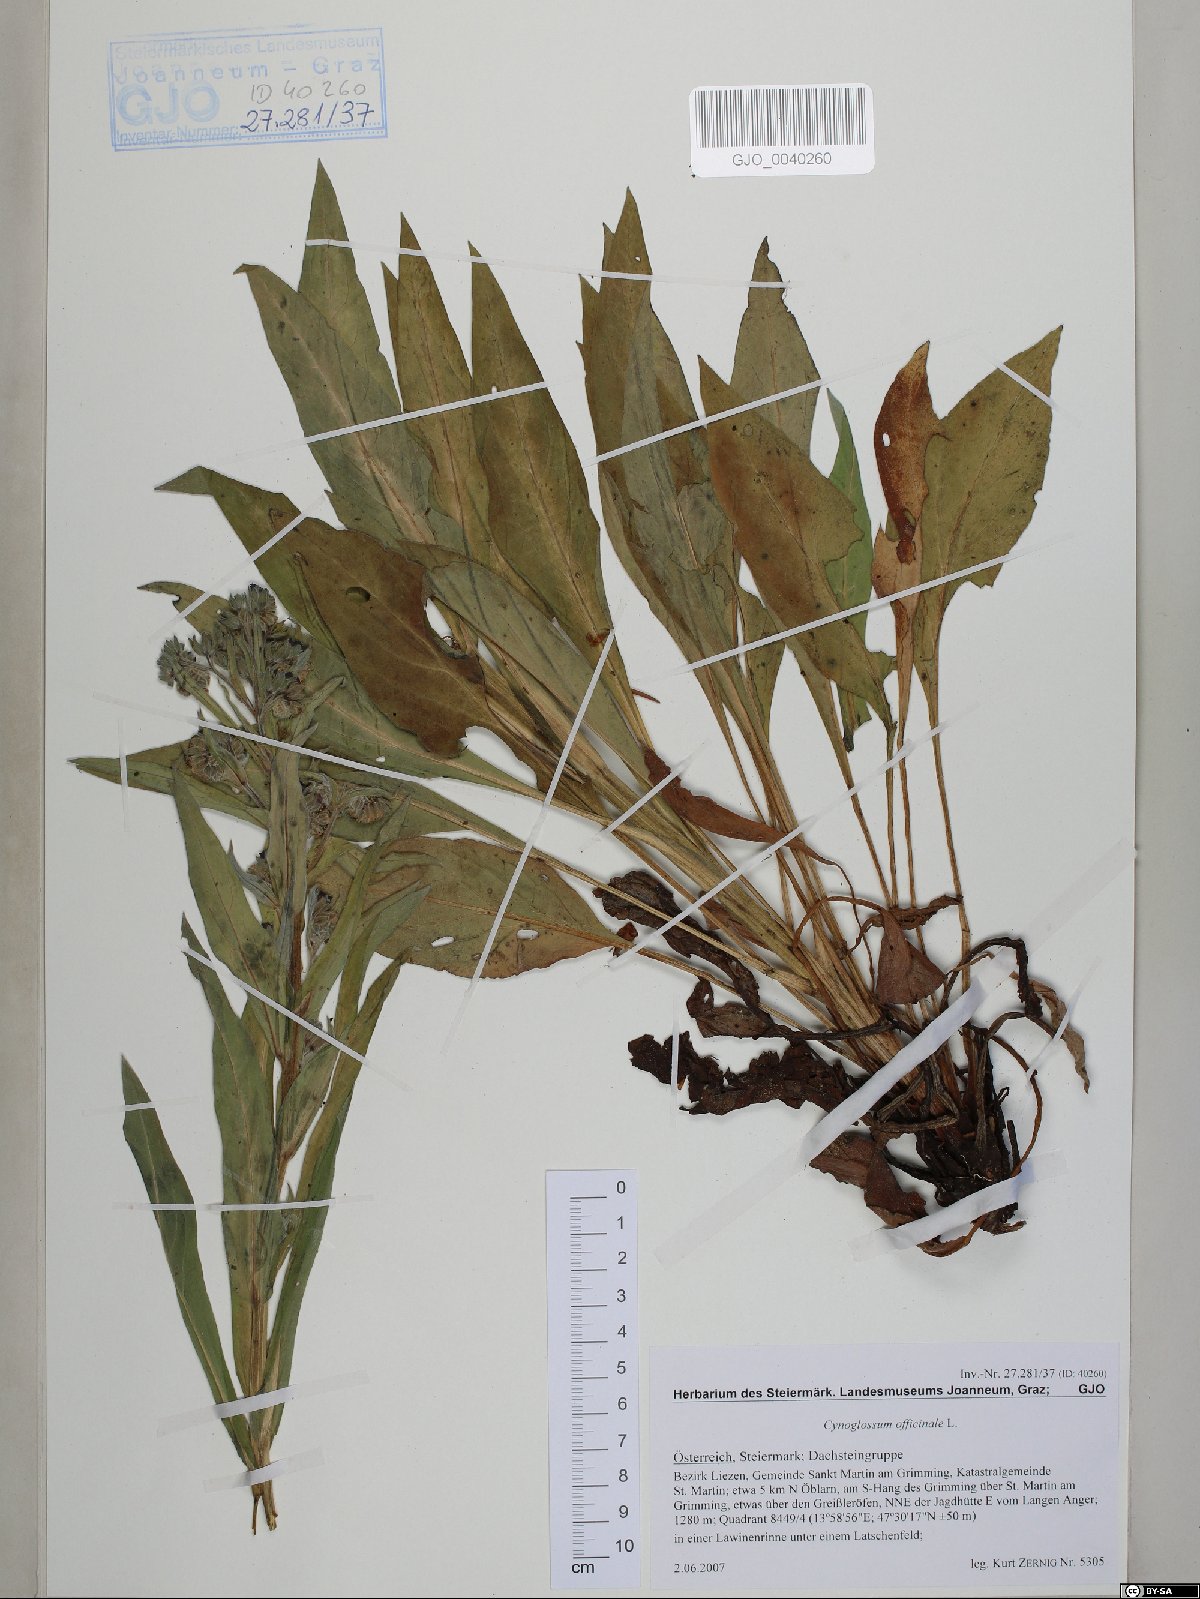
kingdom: Plantae
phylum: Tracheophyta
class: Magnoliopsida
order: Boraginales
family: Boraginaceae
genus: Cynoglossum
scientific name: Cynoglossum officinale
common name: Hound's-tongue
